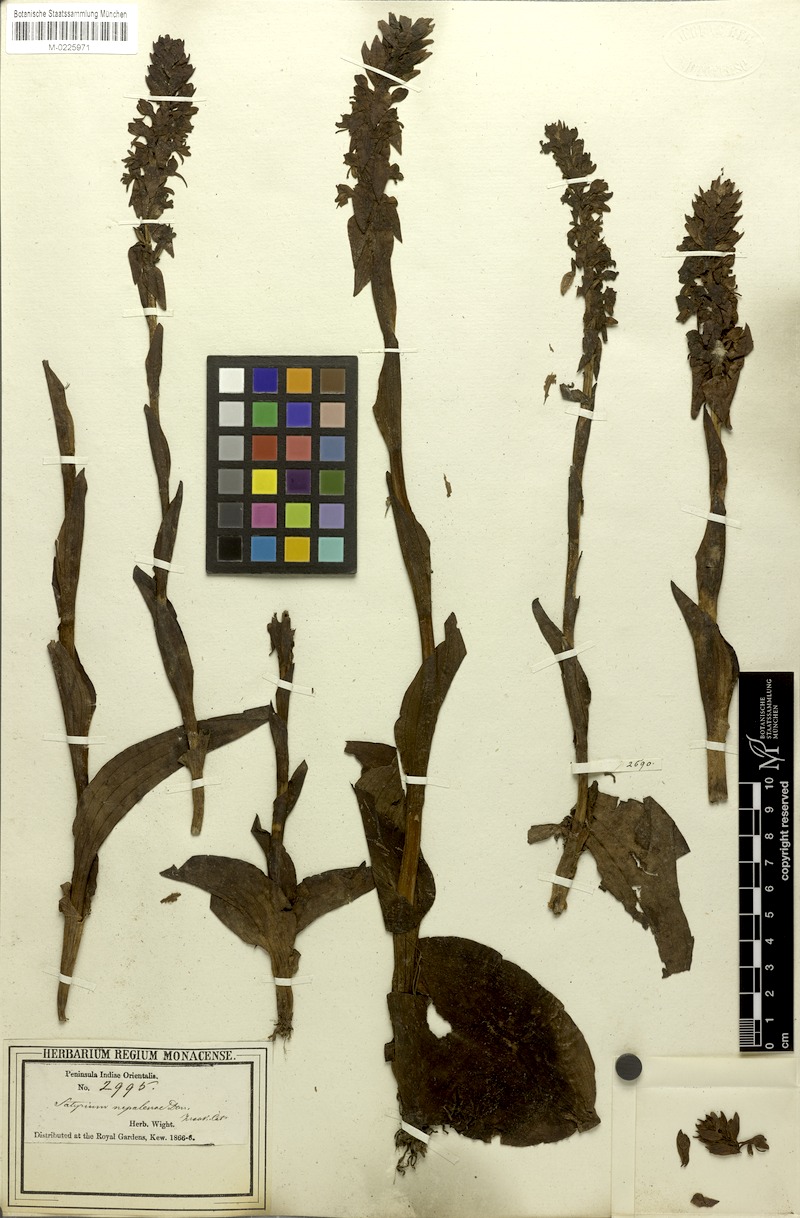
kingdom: Plantae
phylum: Tracheophyta
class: Liliopsida
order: Asparagales
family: Orchidaceae
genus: Satyrium
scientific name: Satyrium nepalense
